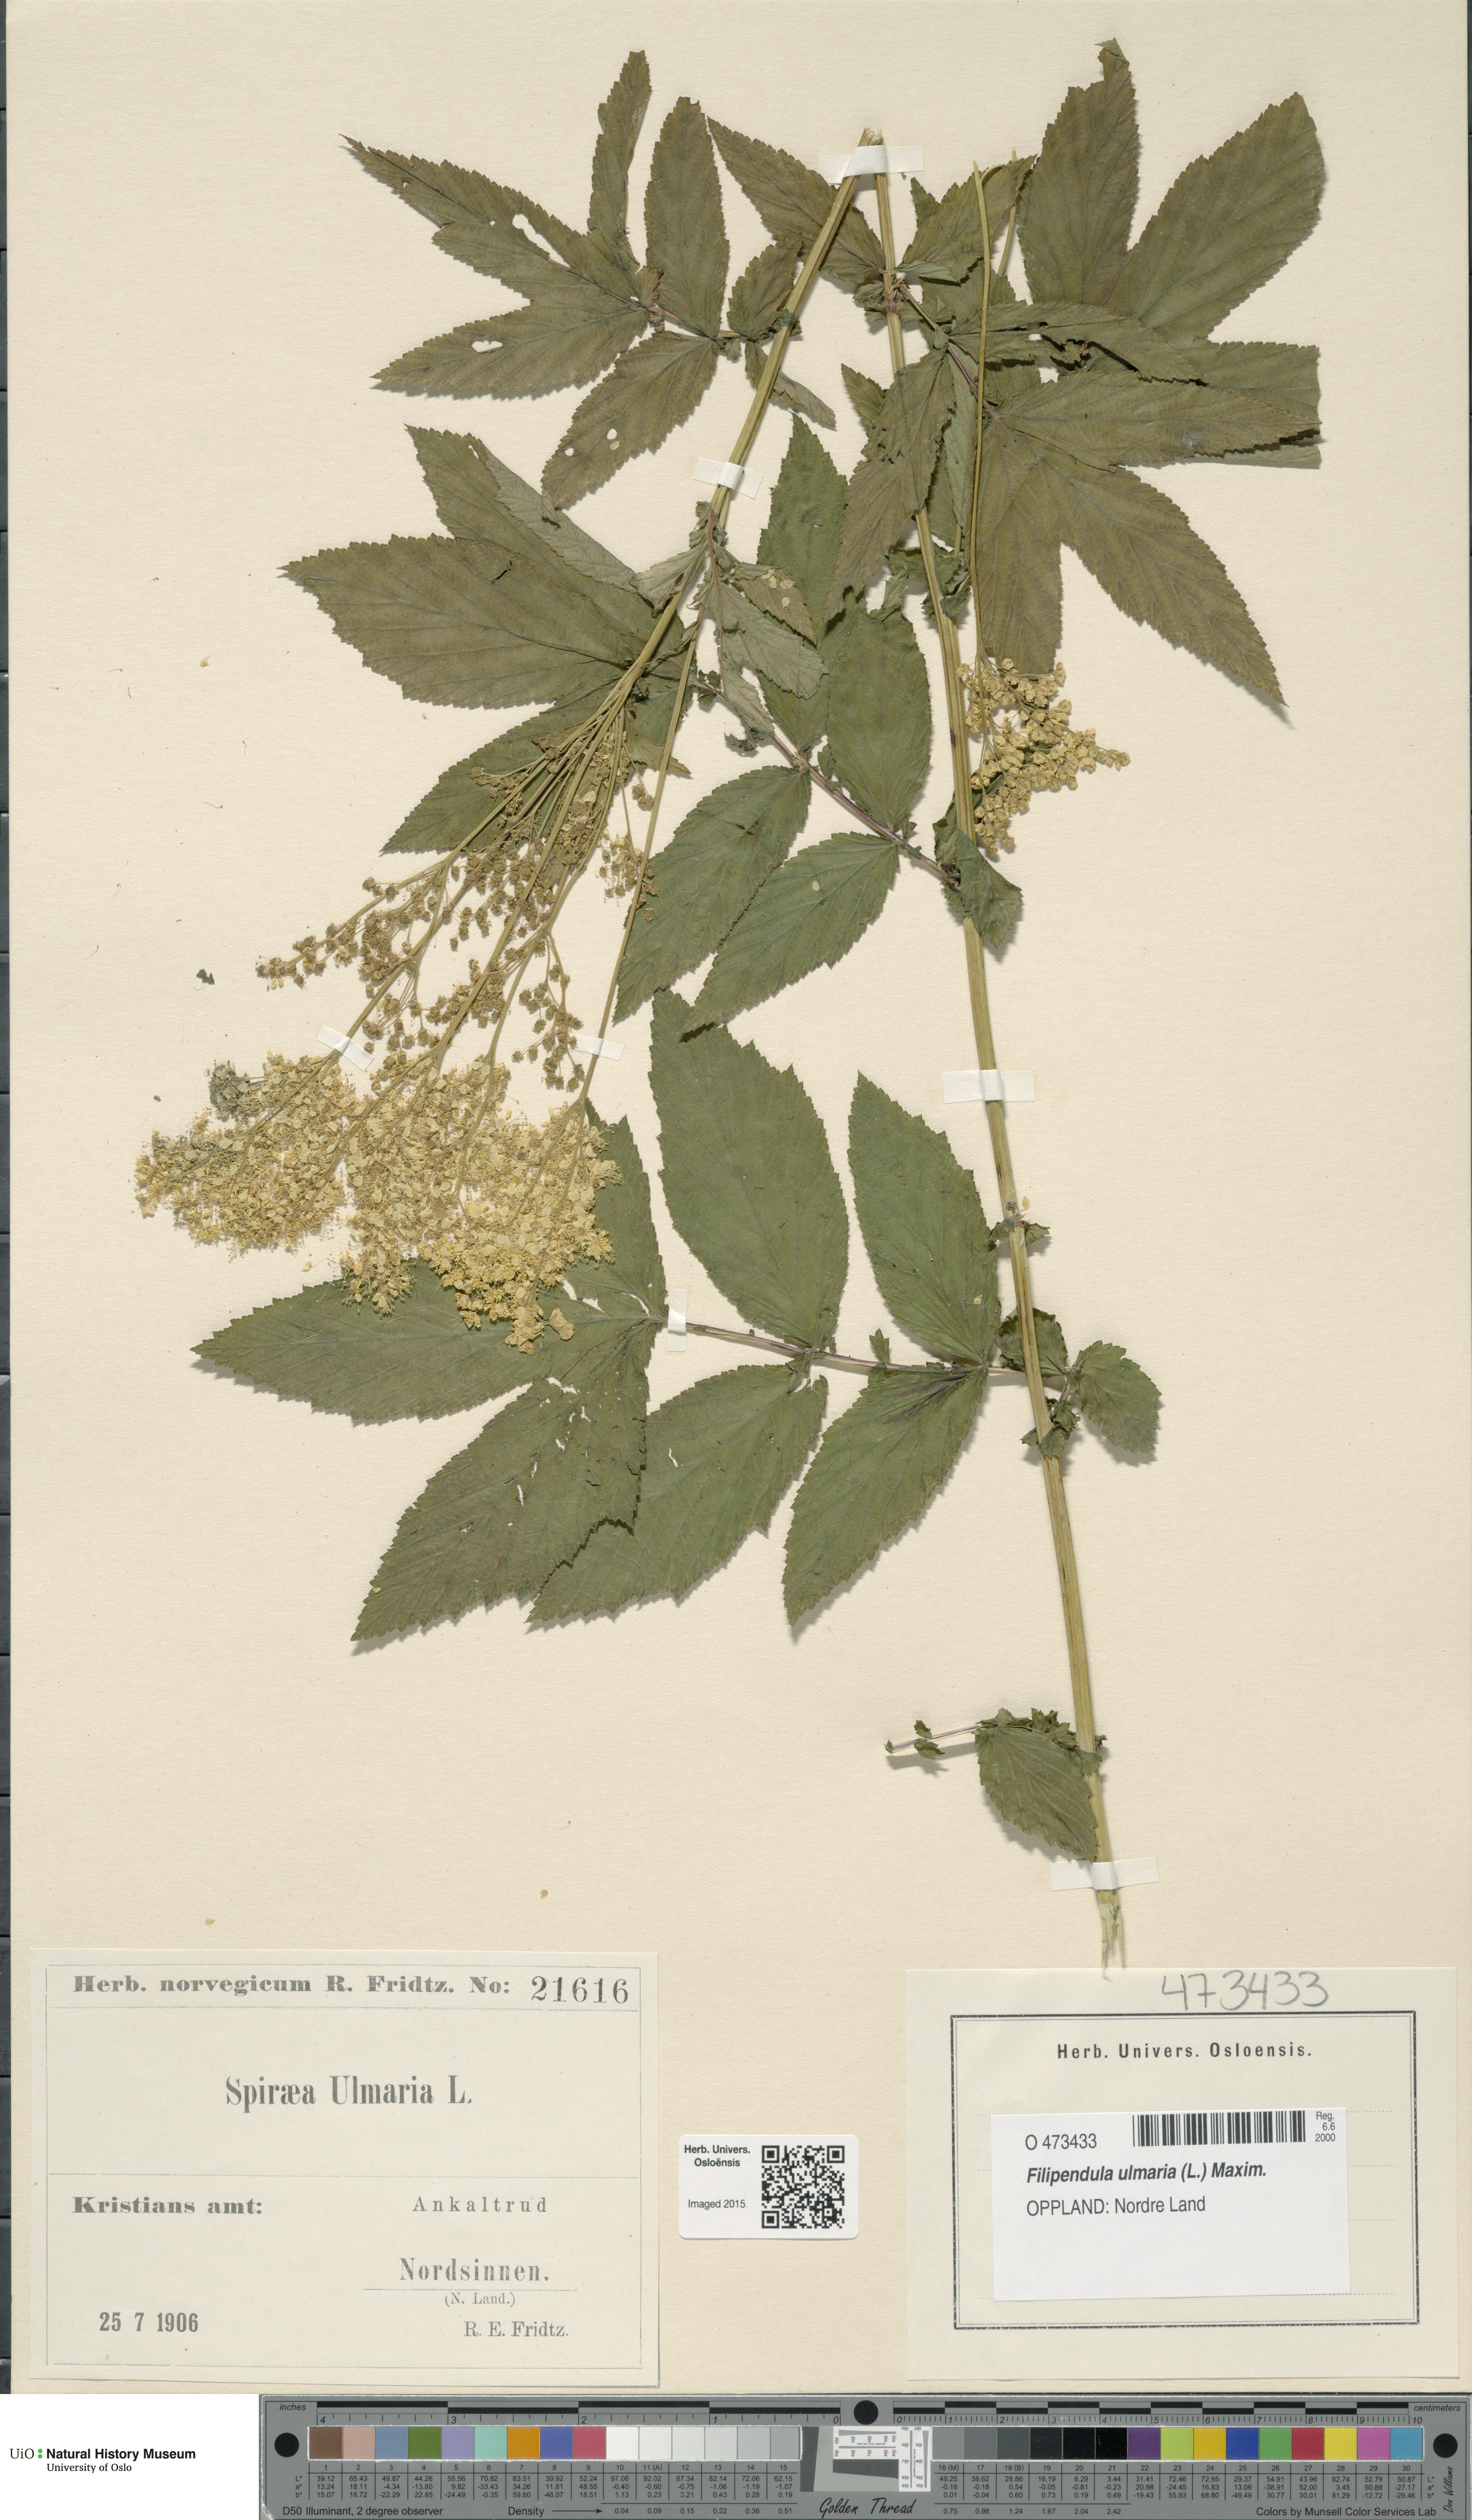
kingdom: Plantae
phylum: Tracheophyta
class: Magnoliopsida
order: Rosales
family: Rosaceae
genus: Filipendula
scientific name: Filipendula ulmaria
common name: Meadowsweet
